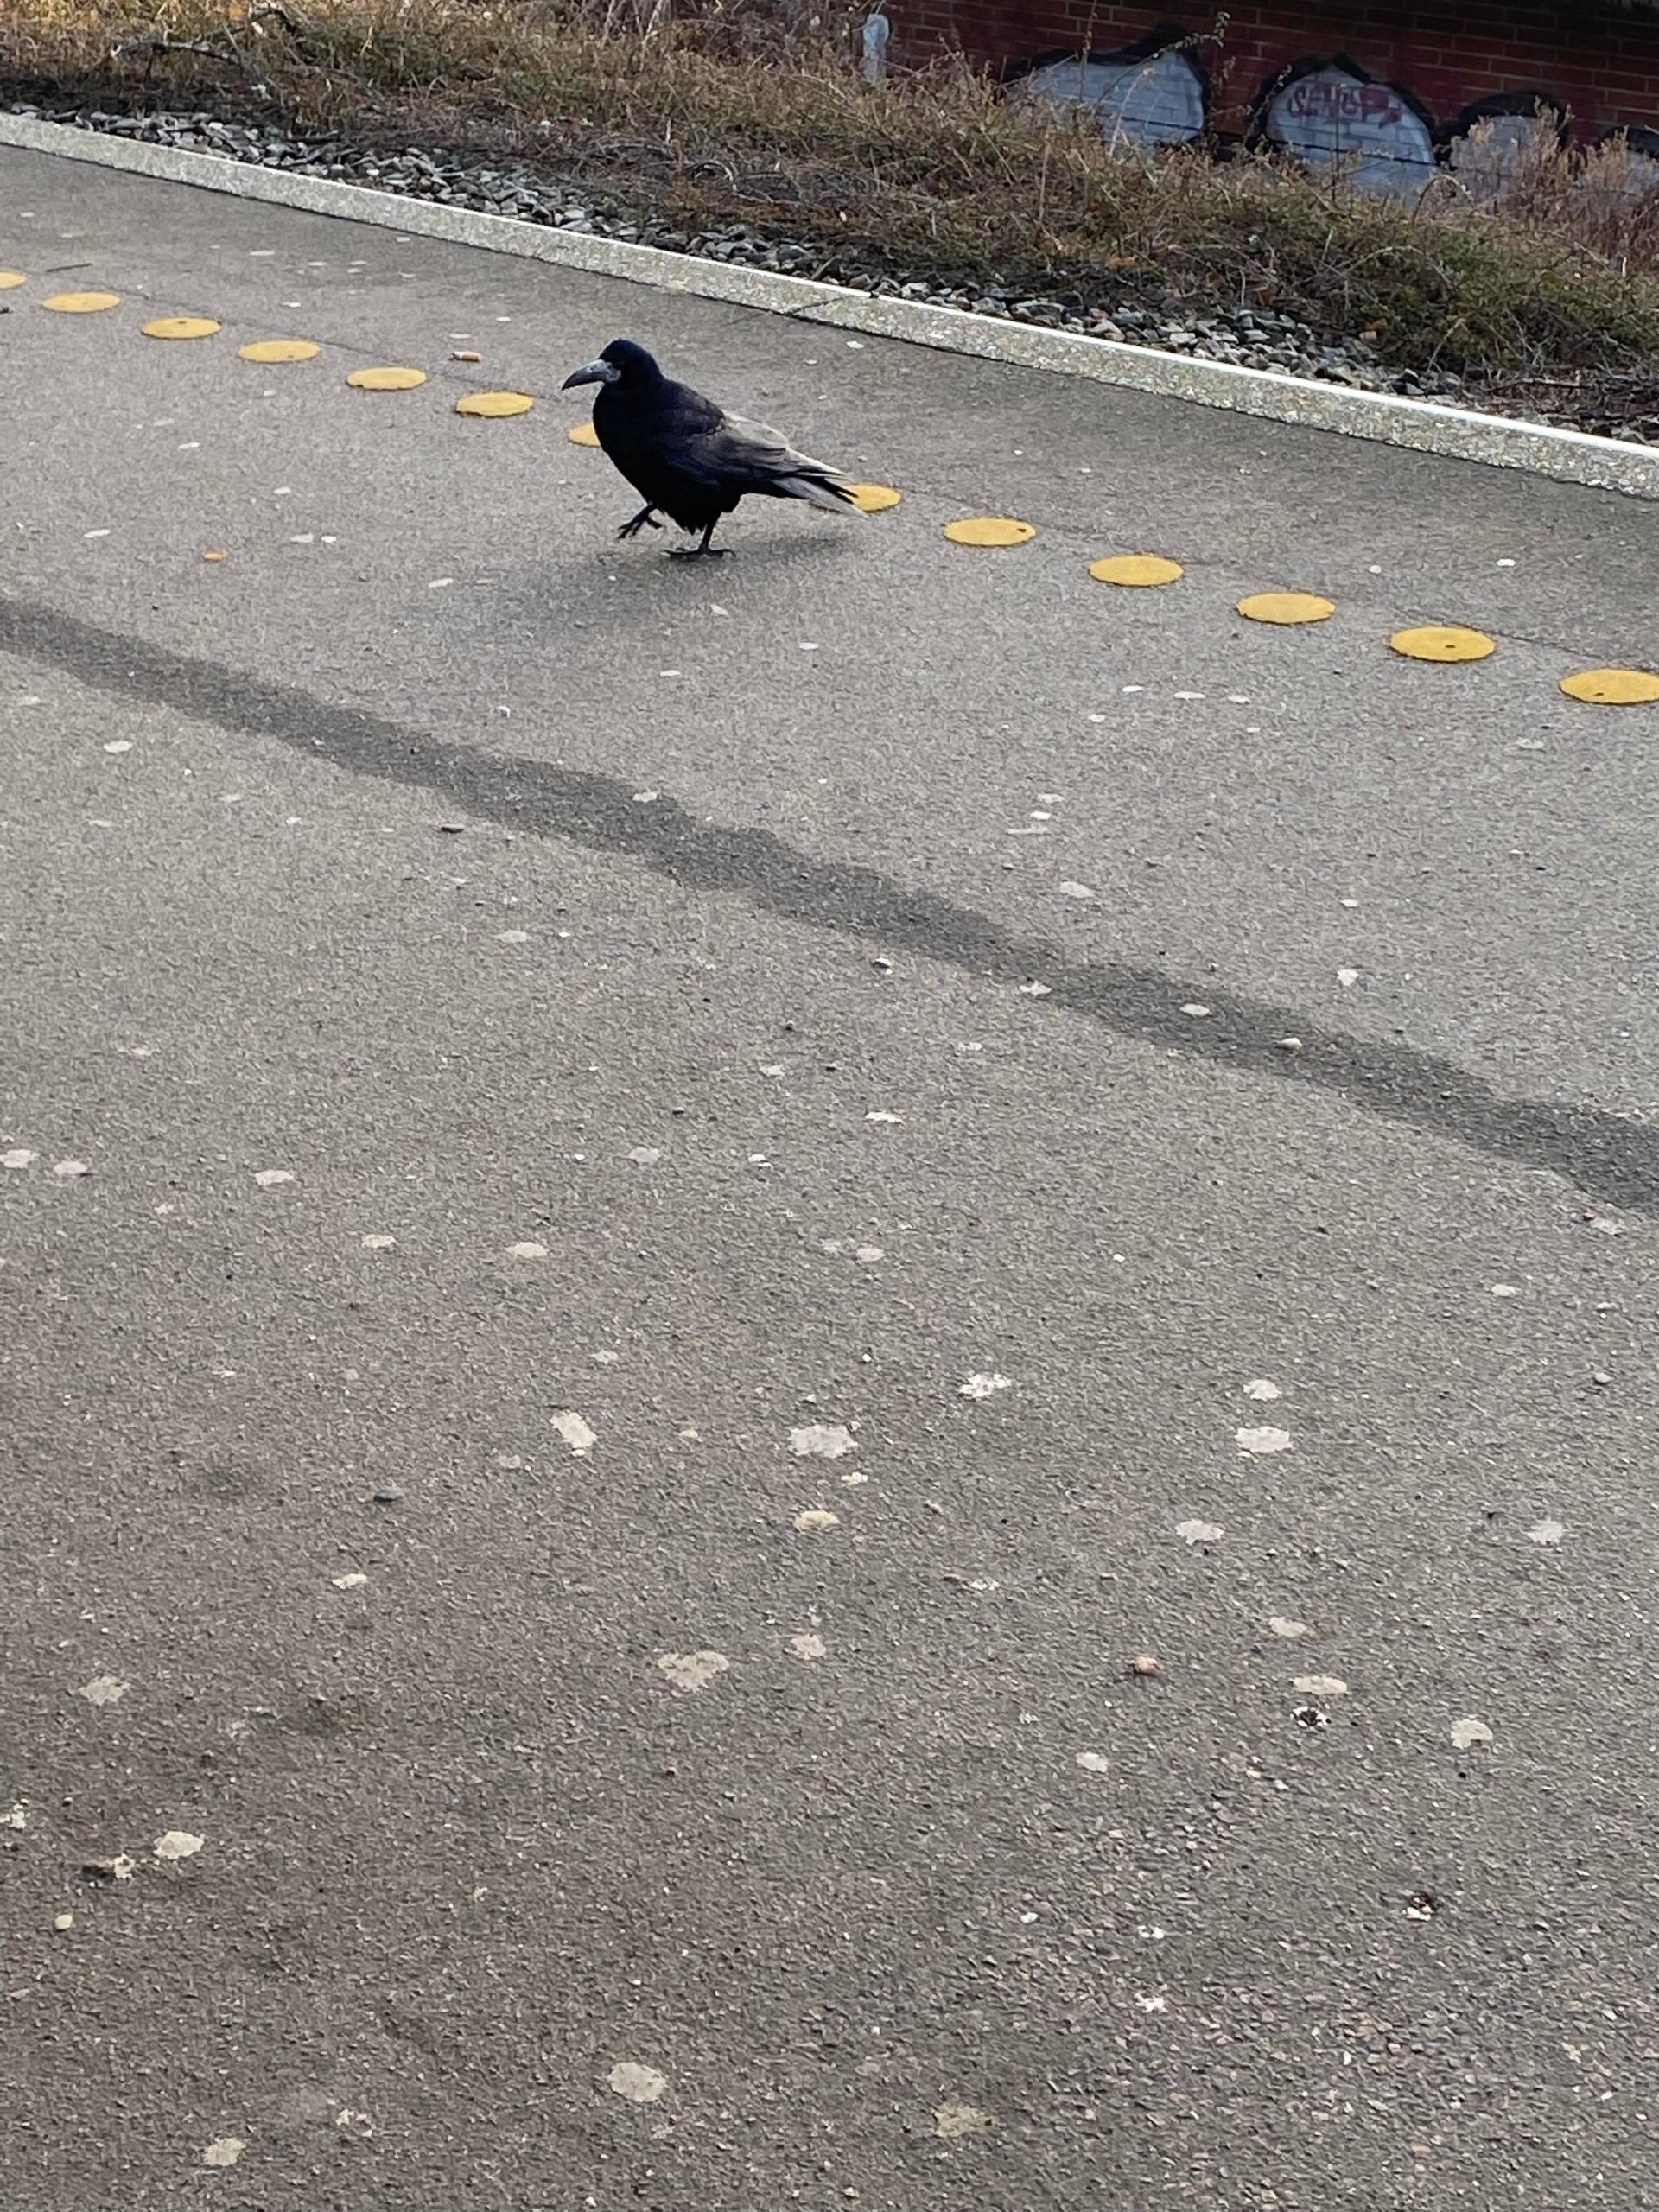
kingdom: Animalia
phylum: Chordata
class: Aves
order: Passeriformes
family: Corvidae
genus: Corvus
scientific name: Corvus frugilegus
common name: Råge
